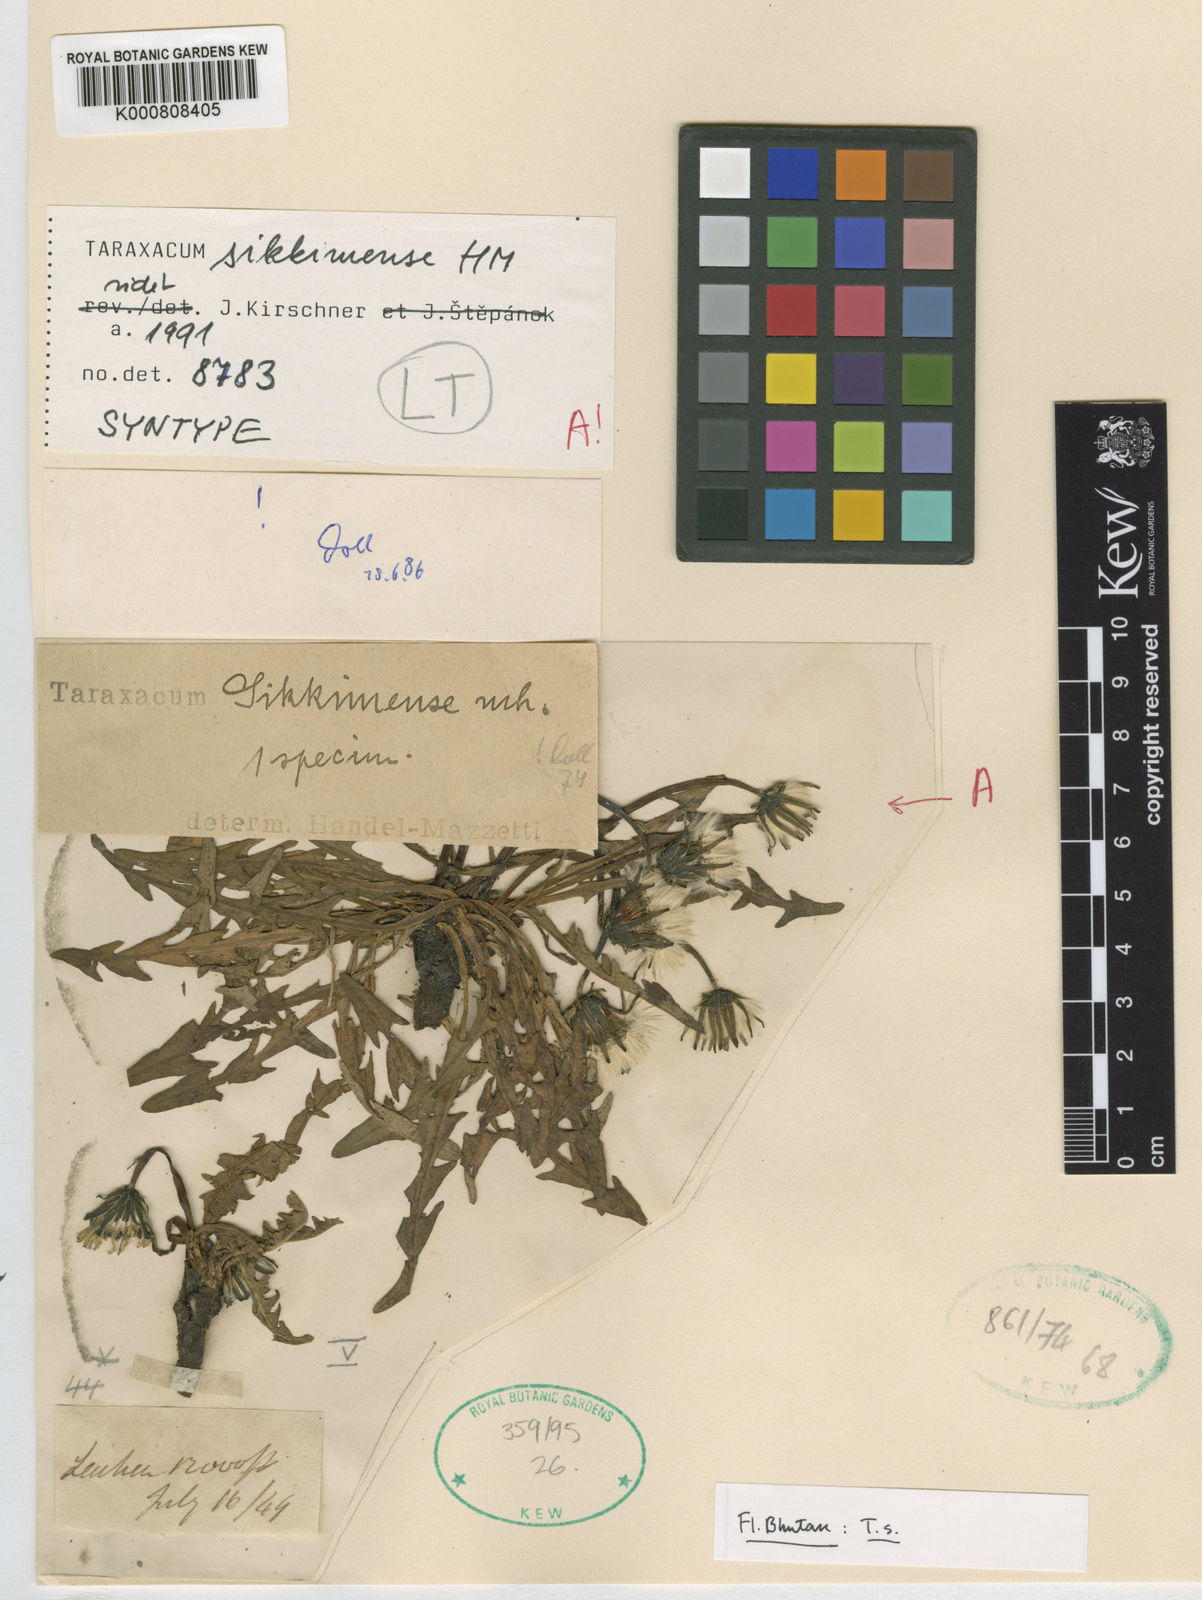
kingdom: Plantae
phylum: Tracheophyta
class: Magnoliopsida
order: Asterales
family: Asteraceae
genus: Taraxacum
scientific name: Taraxacum sikkimense
